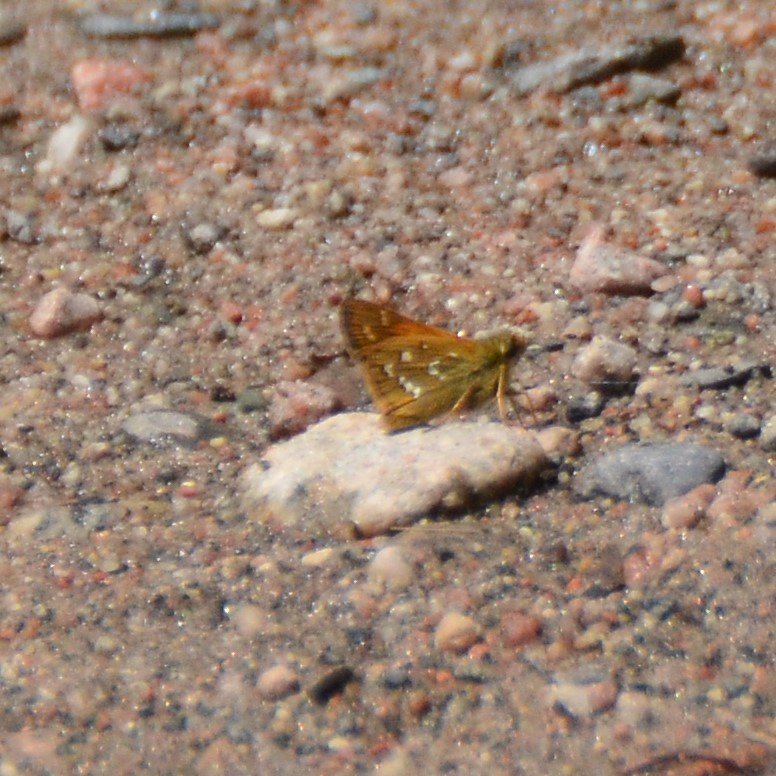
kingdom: Animalia
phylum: Arthropoda
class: Insecta
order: Lepidoptera
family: Hesperiidae
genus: Hesperia
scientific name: Hesperia comma
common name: Common Branded Skipper
